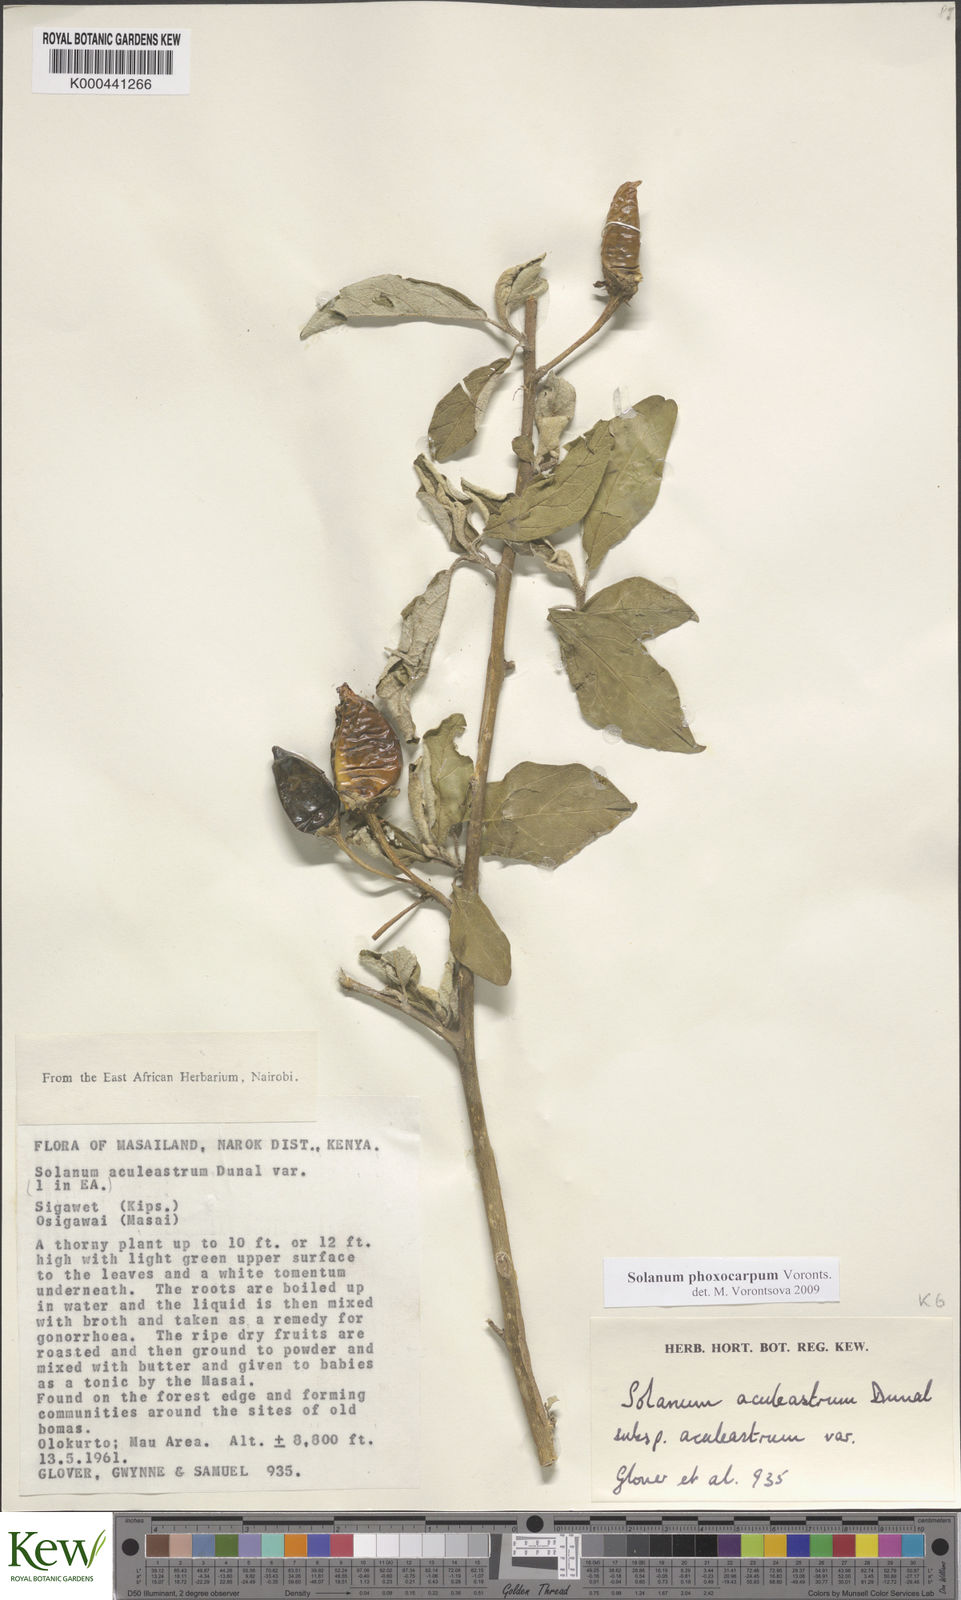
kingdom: Plantae
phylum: Tracheophyta
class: Magnoliopsida
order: Solanales
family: Solanaceae
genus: Solanum
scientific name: Solanum phoxocarpum
